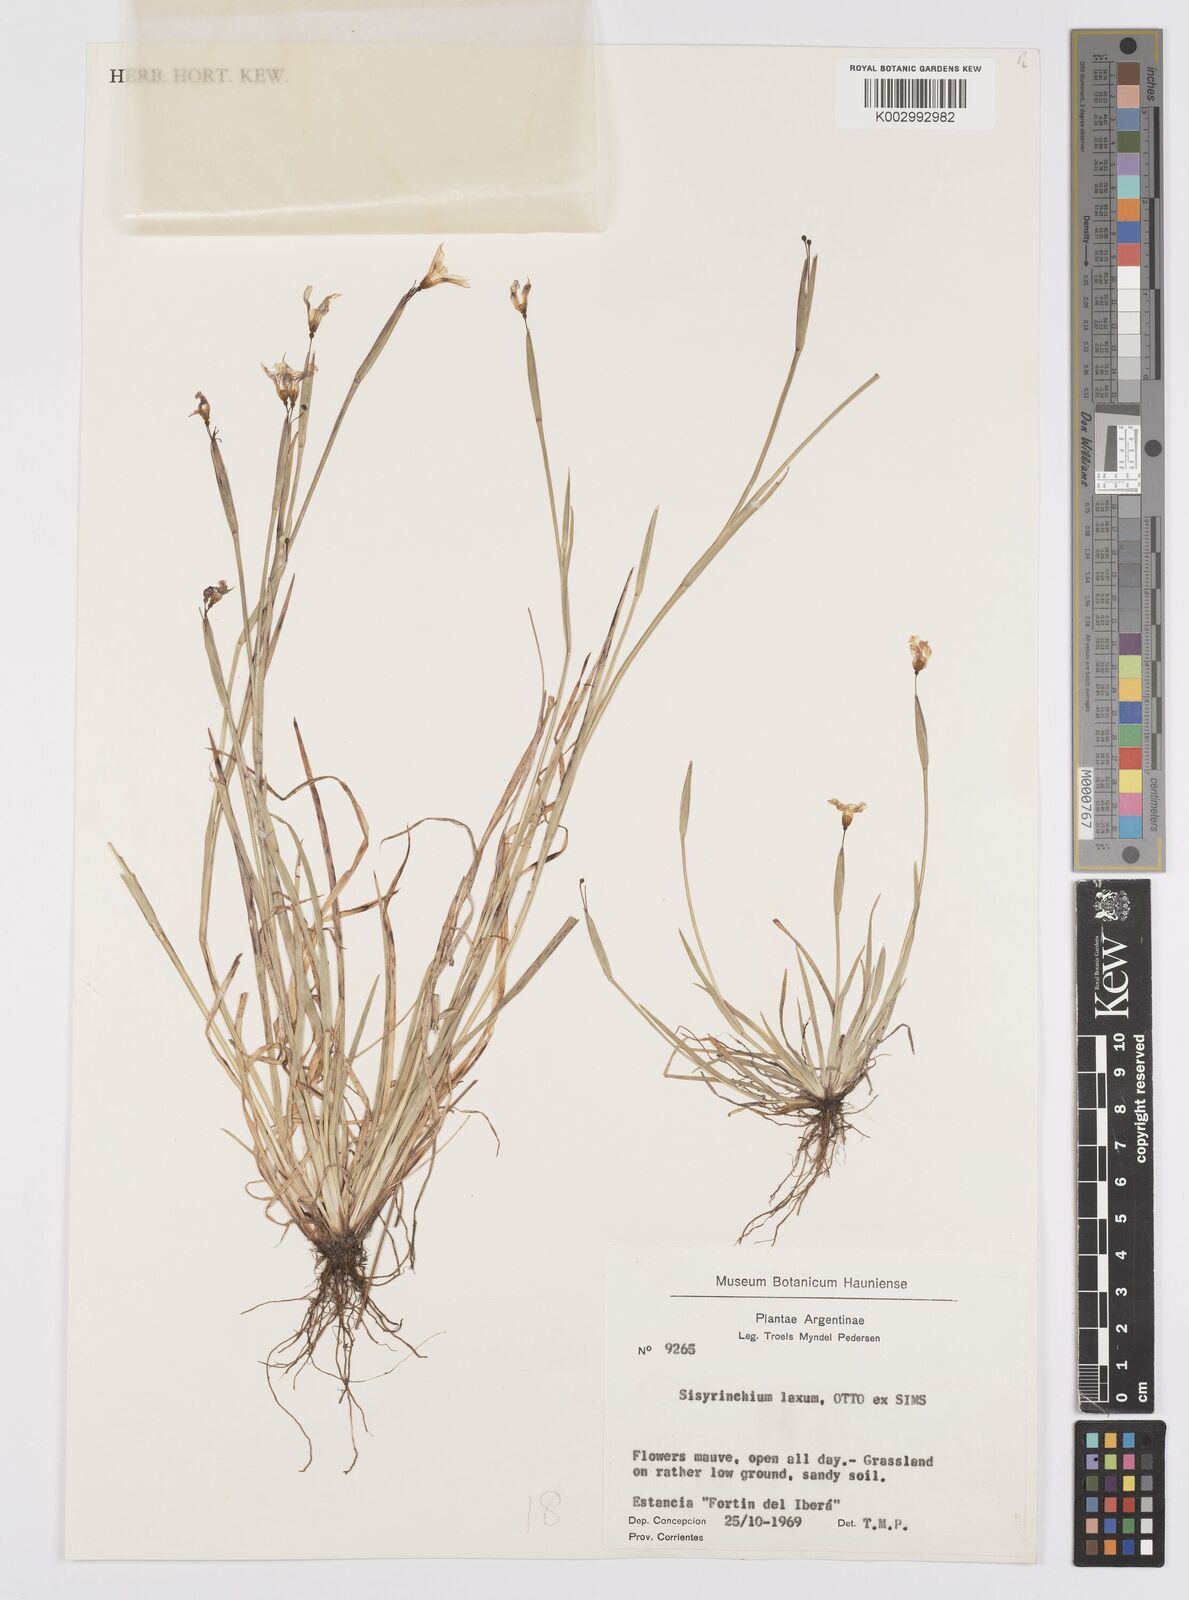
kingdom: Plantae
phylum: Tracheophyta
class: Liliopsida
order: Asparagales
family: Iridaceae
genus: Sisyrinchium
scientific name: Sisyrinchium laxum
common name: Veined yellow-eyed-grass
